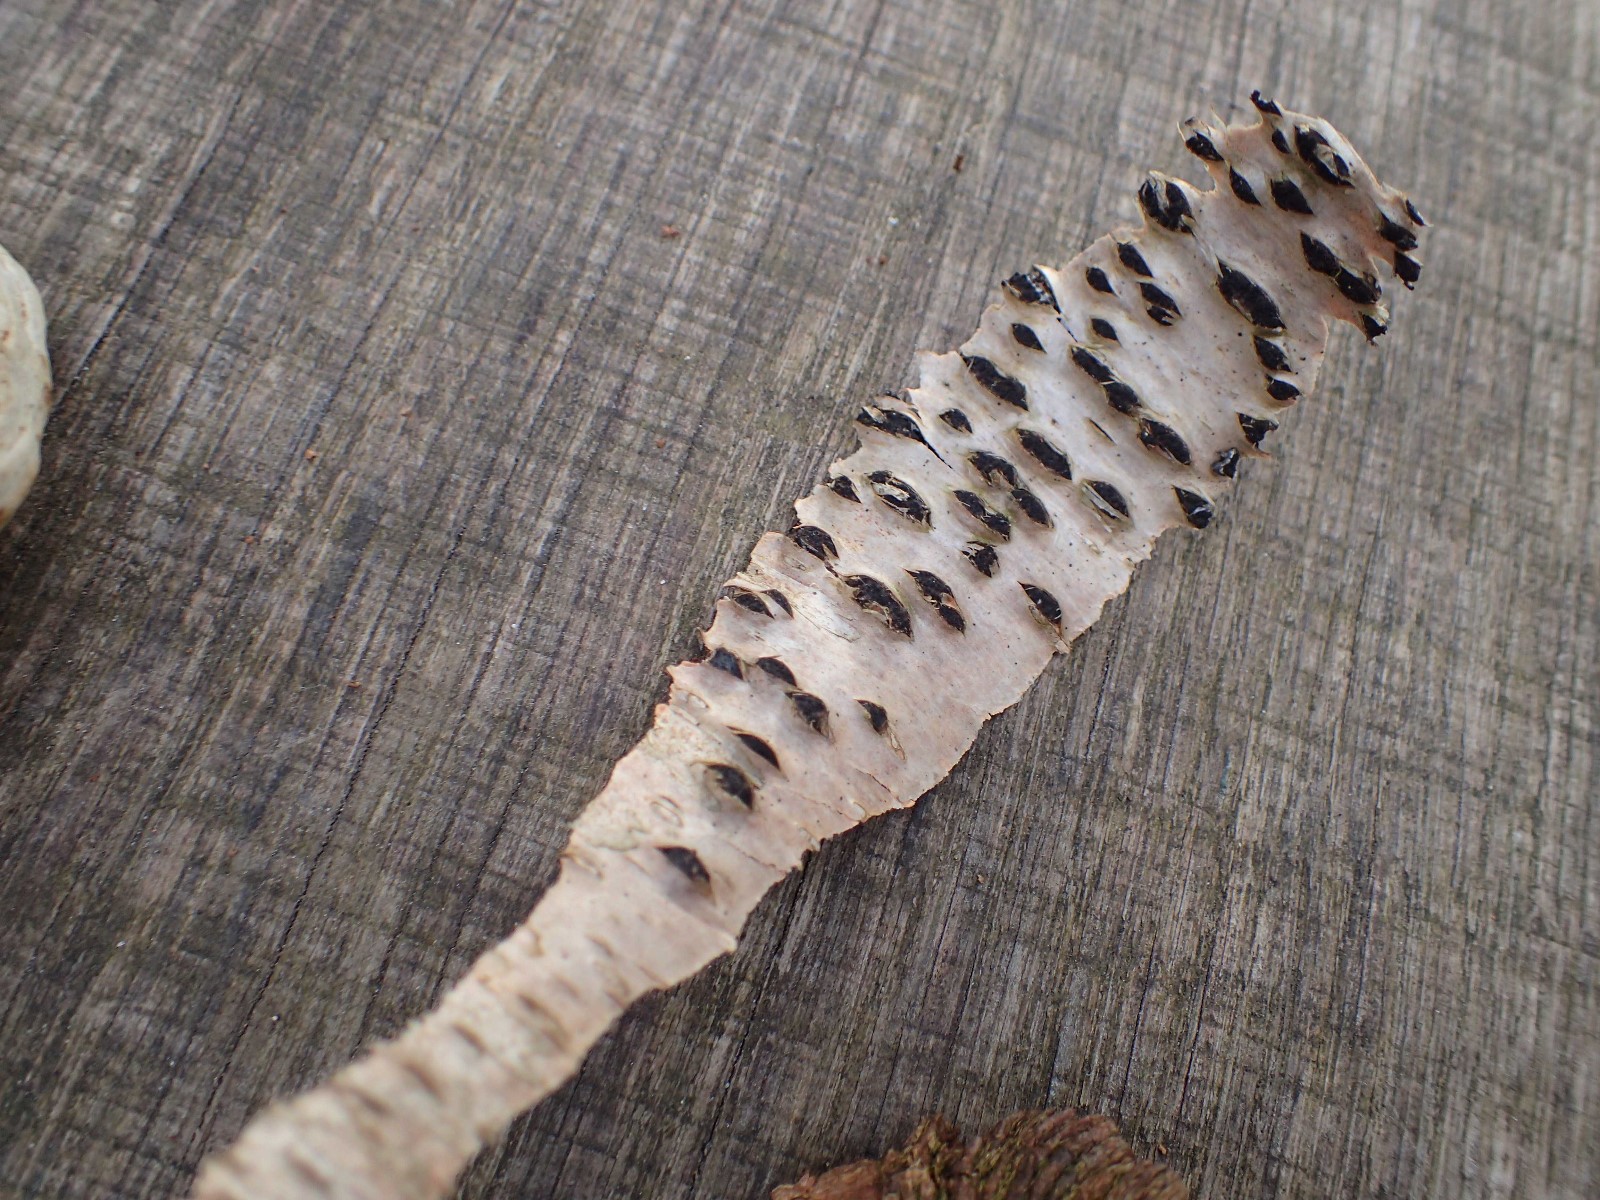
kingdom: Fungi
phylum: Ascomycota
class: Sordariomycetes
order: Xylariales
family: Hypoxylaceae
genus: Jackrogersella
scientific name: Jackrogersella multiformis
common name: foranderlig kulbær
